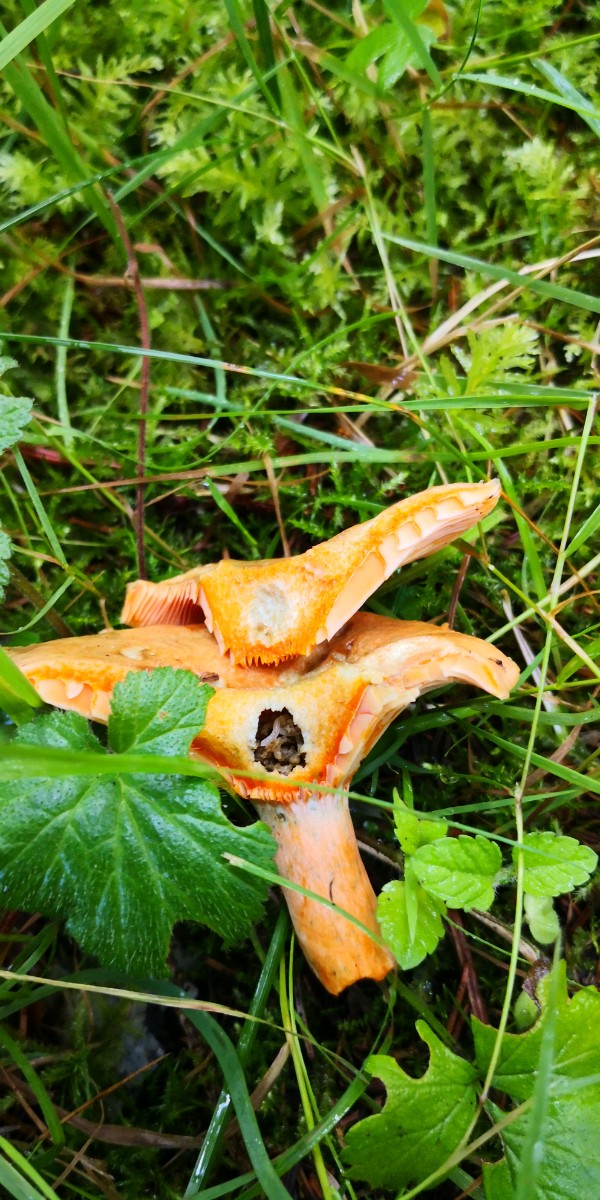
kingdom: Fungi
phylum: Basidiomycota
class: Agaricomycetes
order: Russulales
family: Russulaceae
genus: Lactarius
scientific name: Lactarius deterrimus
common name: gran-mælkehat
